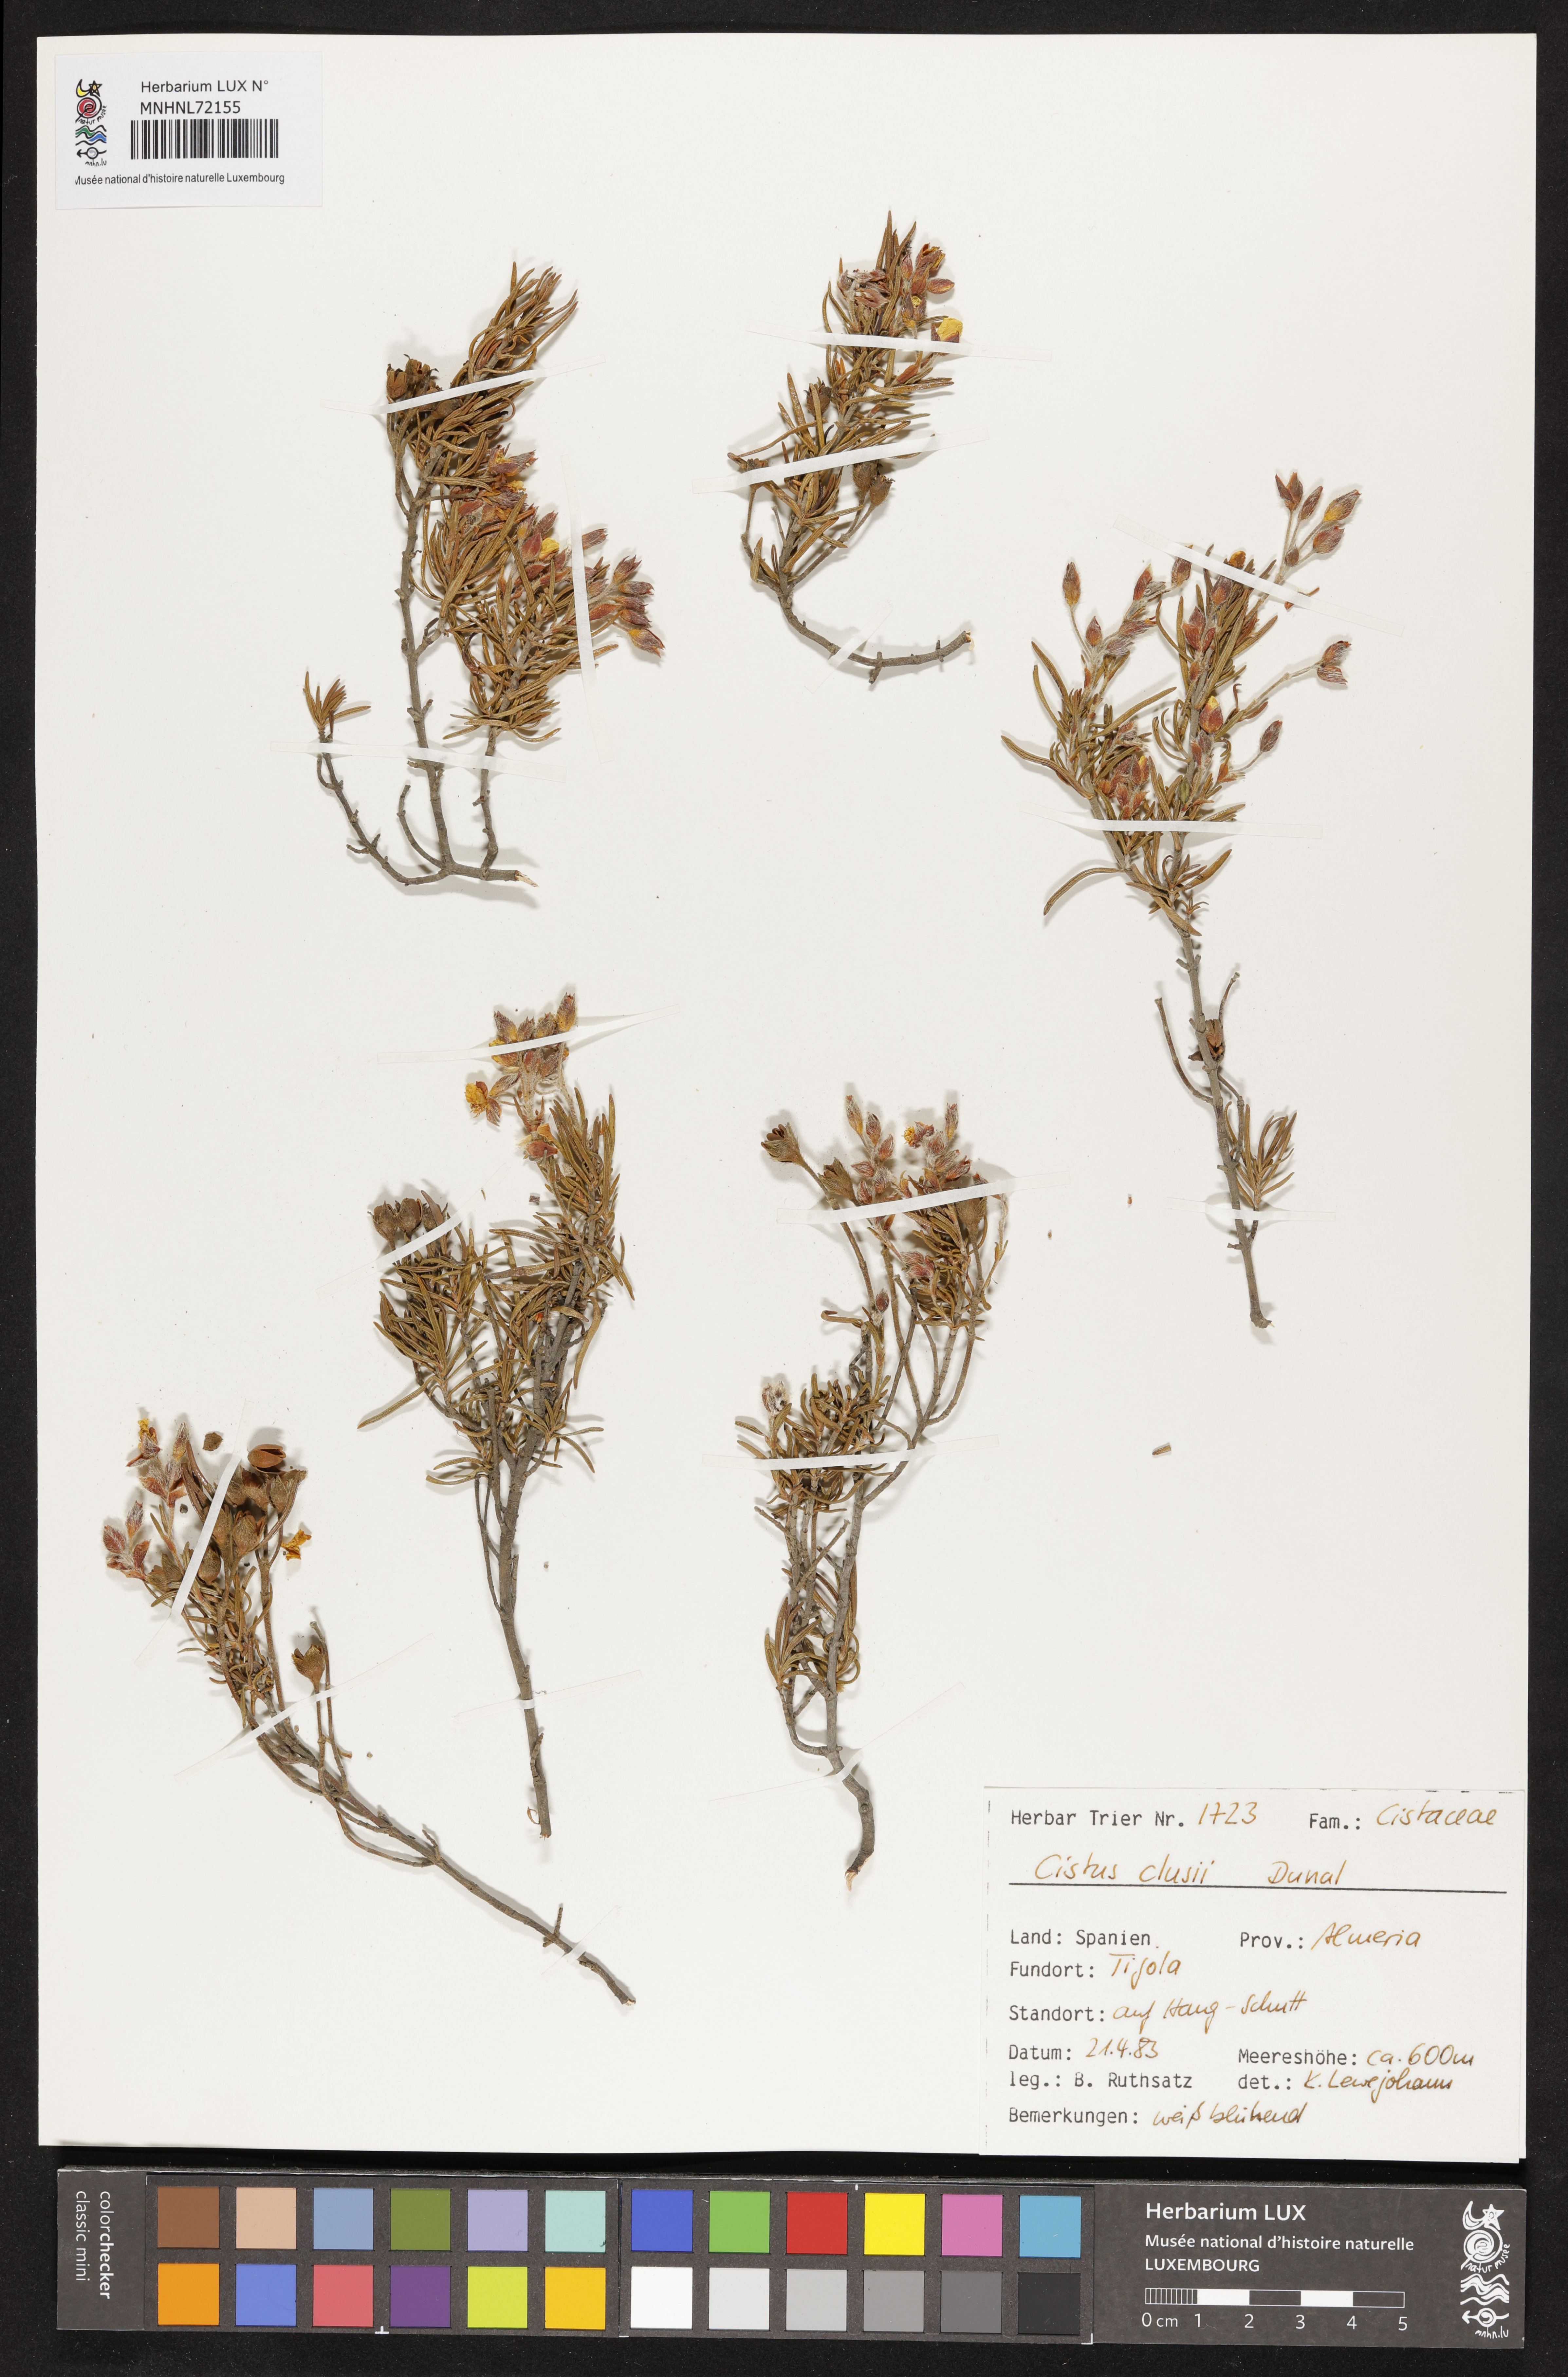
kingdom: Plantae
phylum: Tracheophyta
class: Magnoliopsida
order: Malvales
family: Cistaceae
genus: Cistus
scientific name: Cistus clusii
